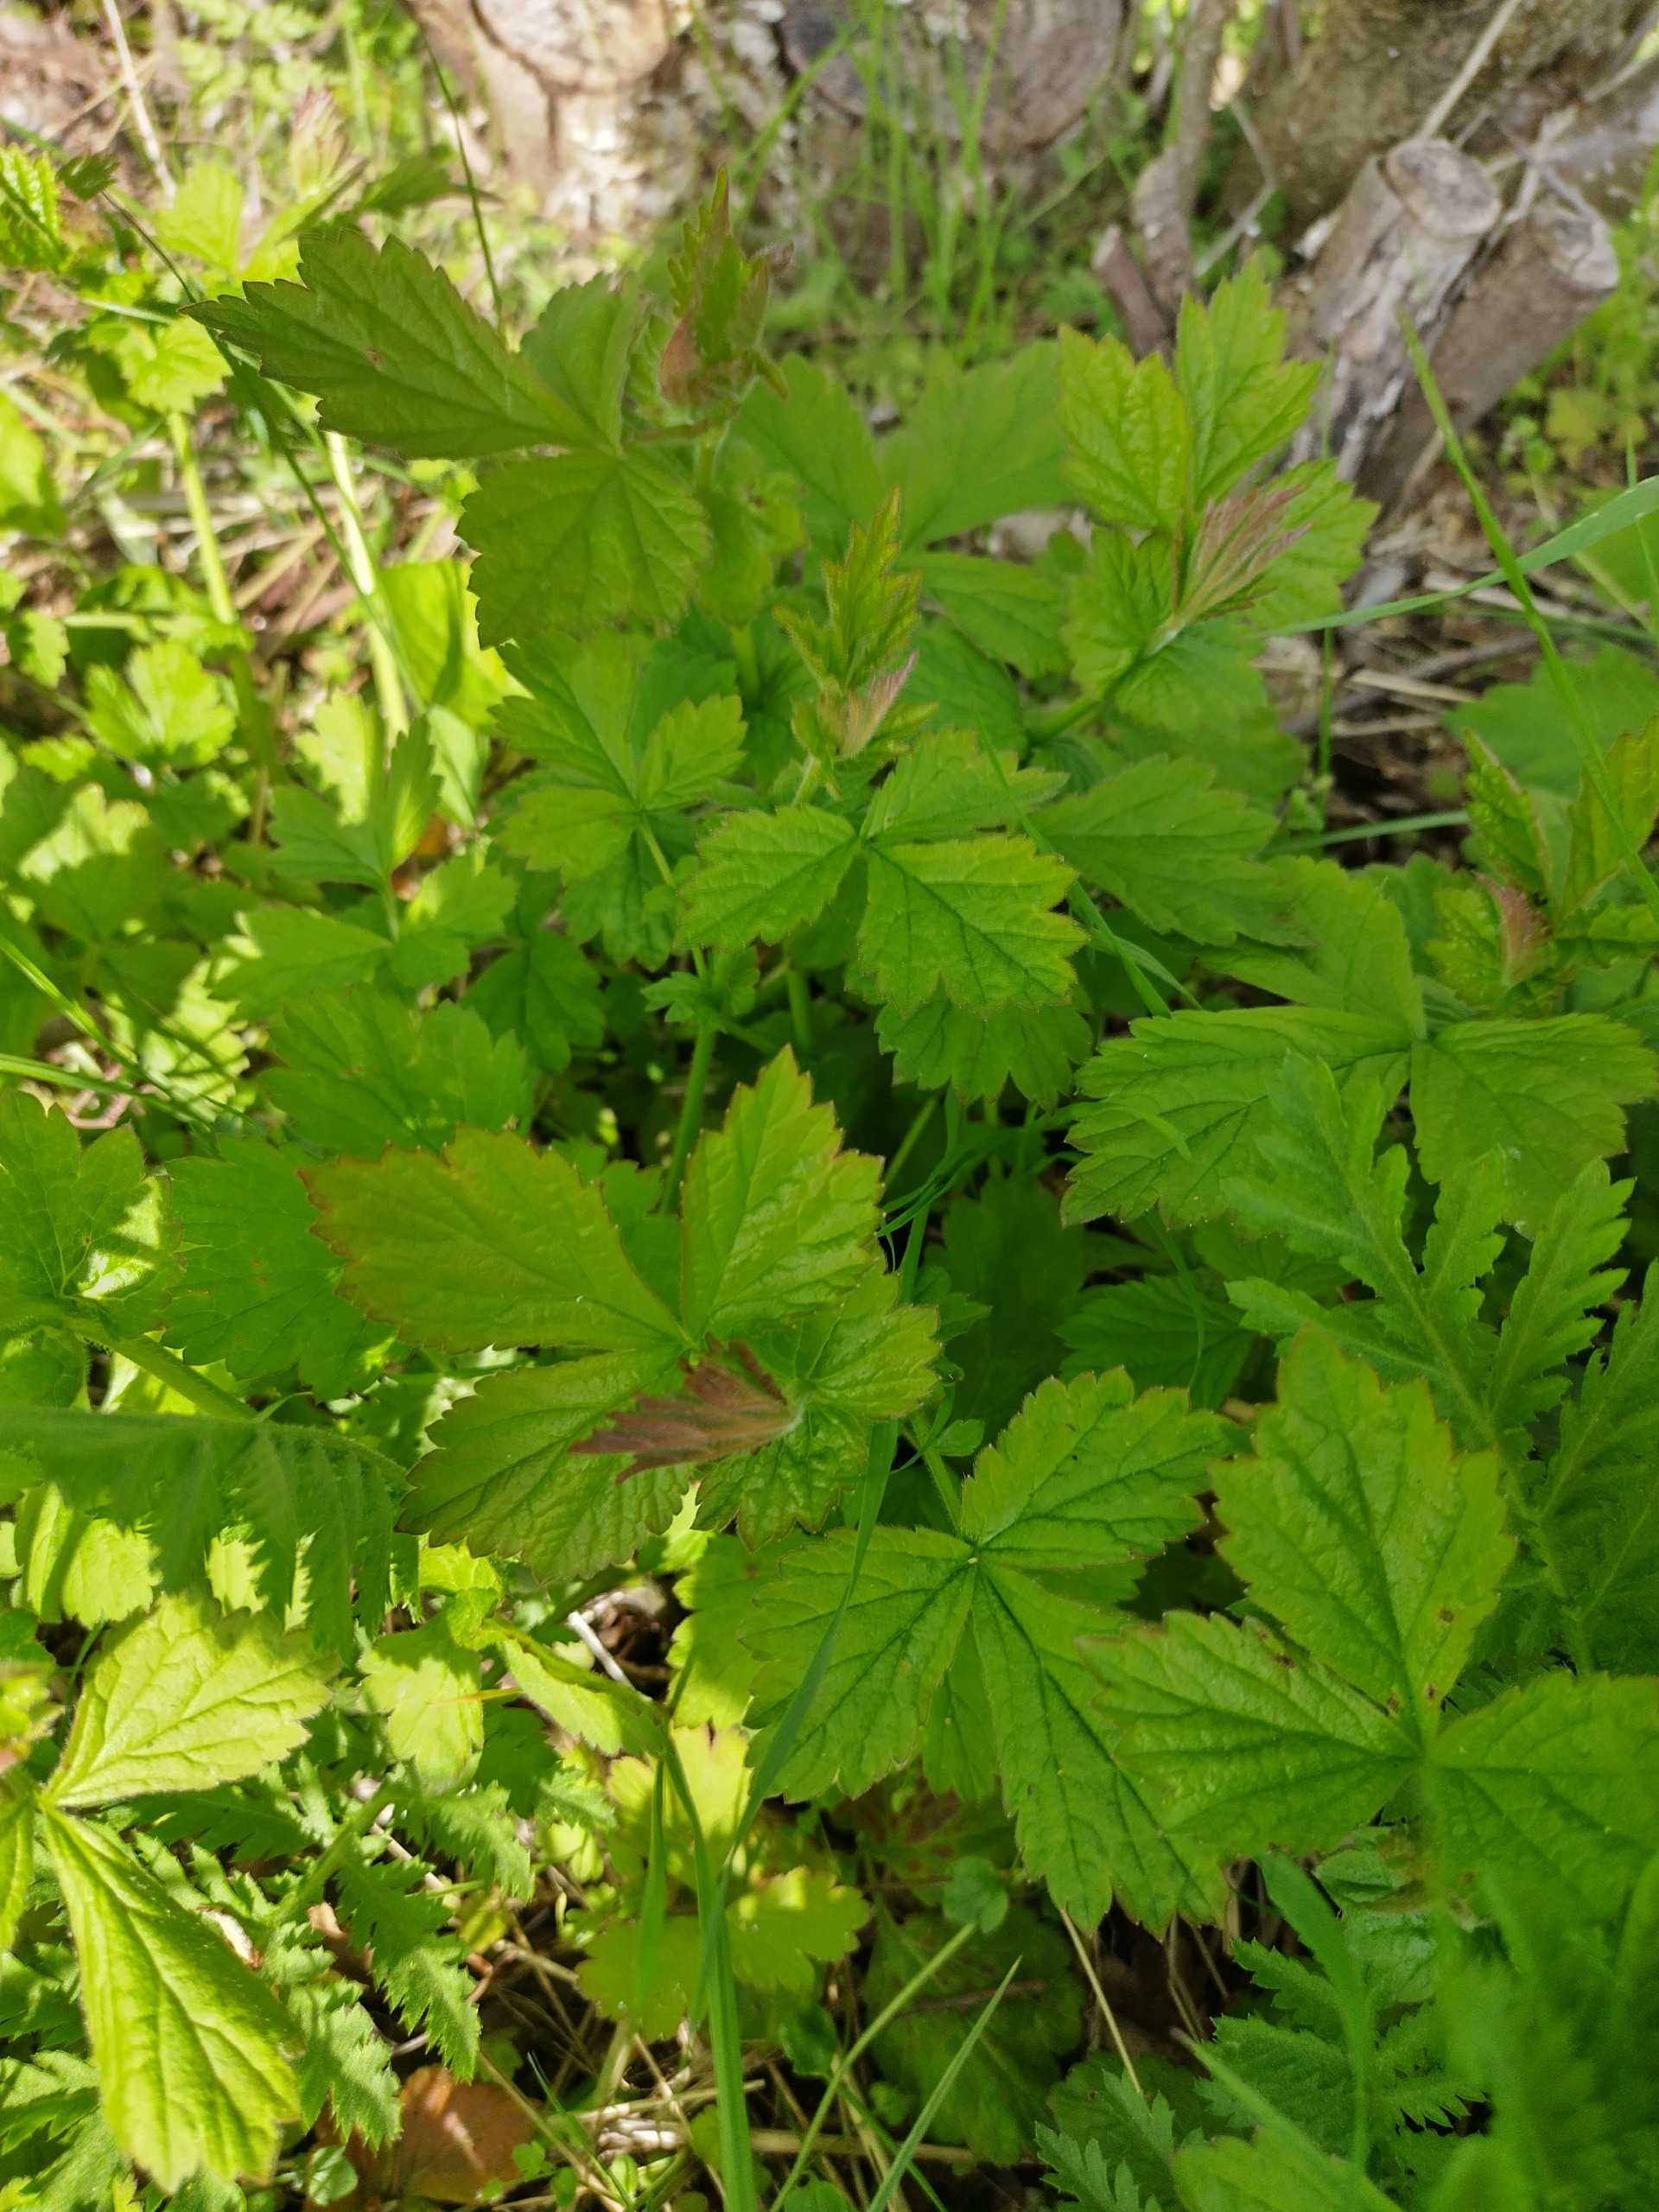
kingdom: Plantae
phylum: Tracheophyta
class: Magnoliopsida
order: Rosales
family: Rosaceae
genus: Geum
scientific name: Geum urbanum
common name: Feber-nellikerod
